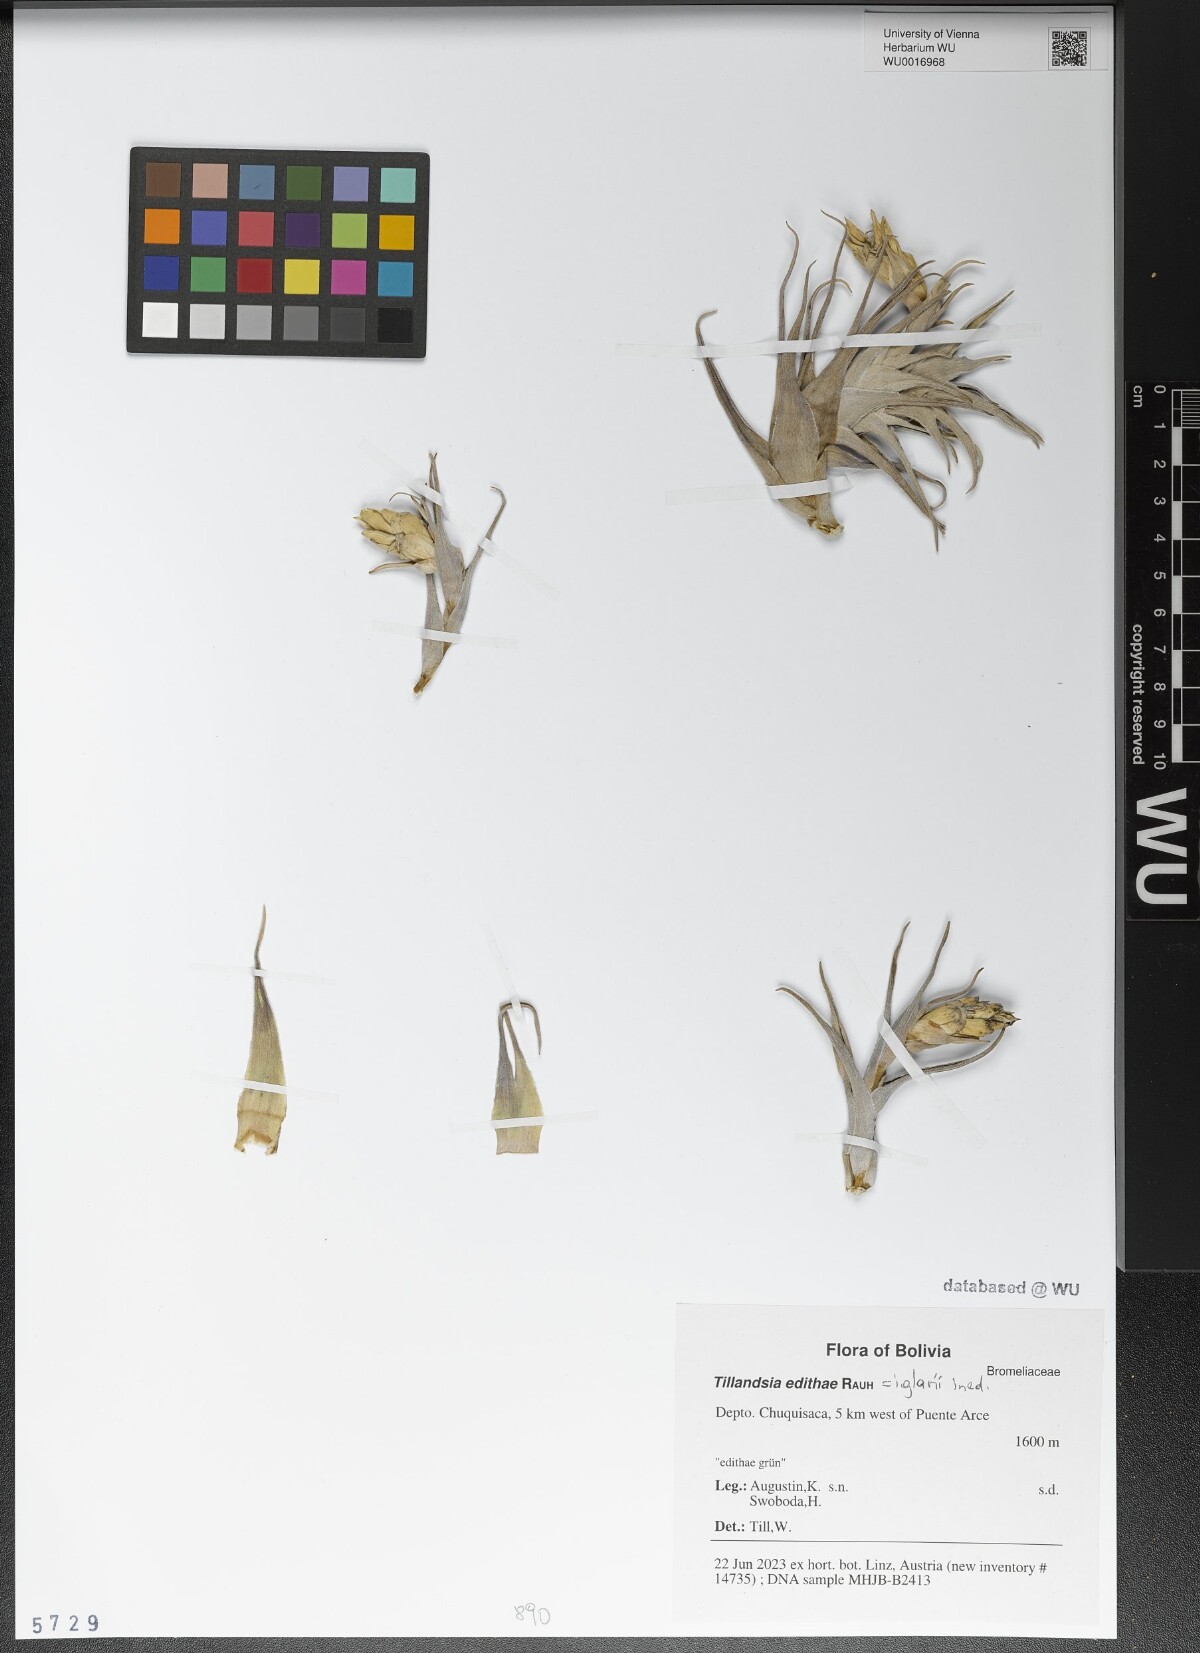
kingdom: Plantae
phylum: Tracheophyta
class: Liliopsida
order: Poales
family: Bromeliaceae
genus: Tillandsia
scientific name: Tillandsia edithae
